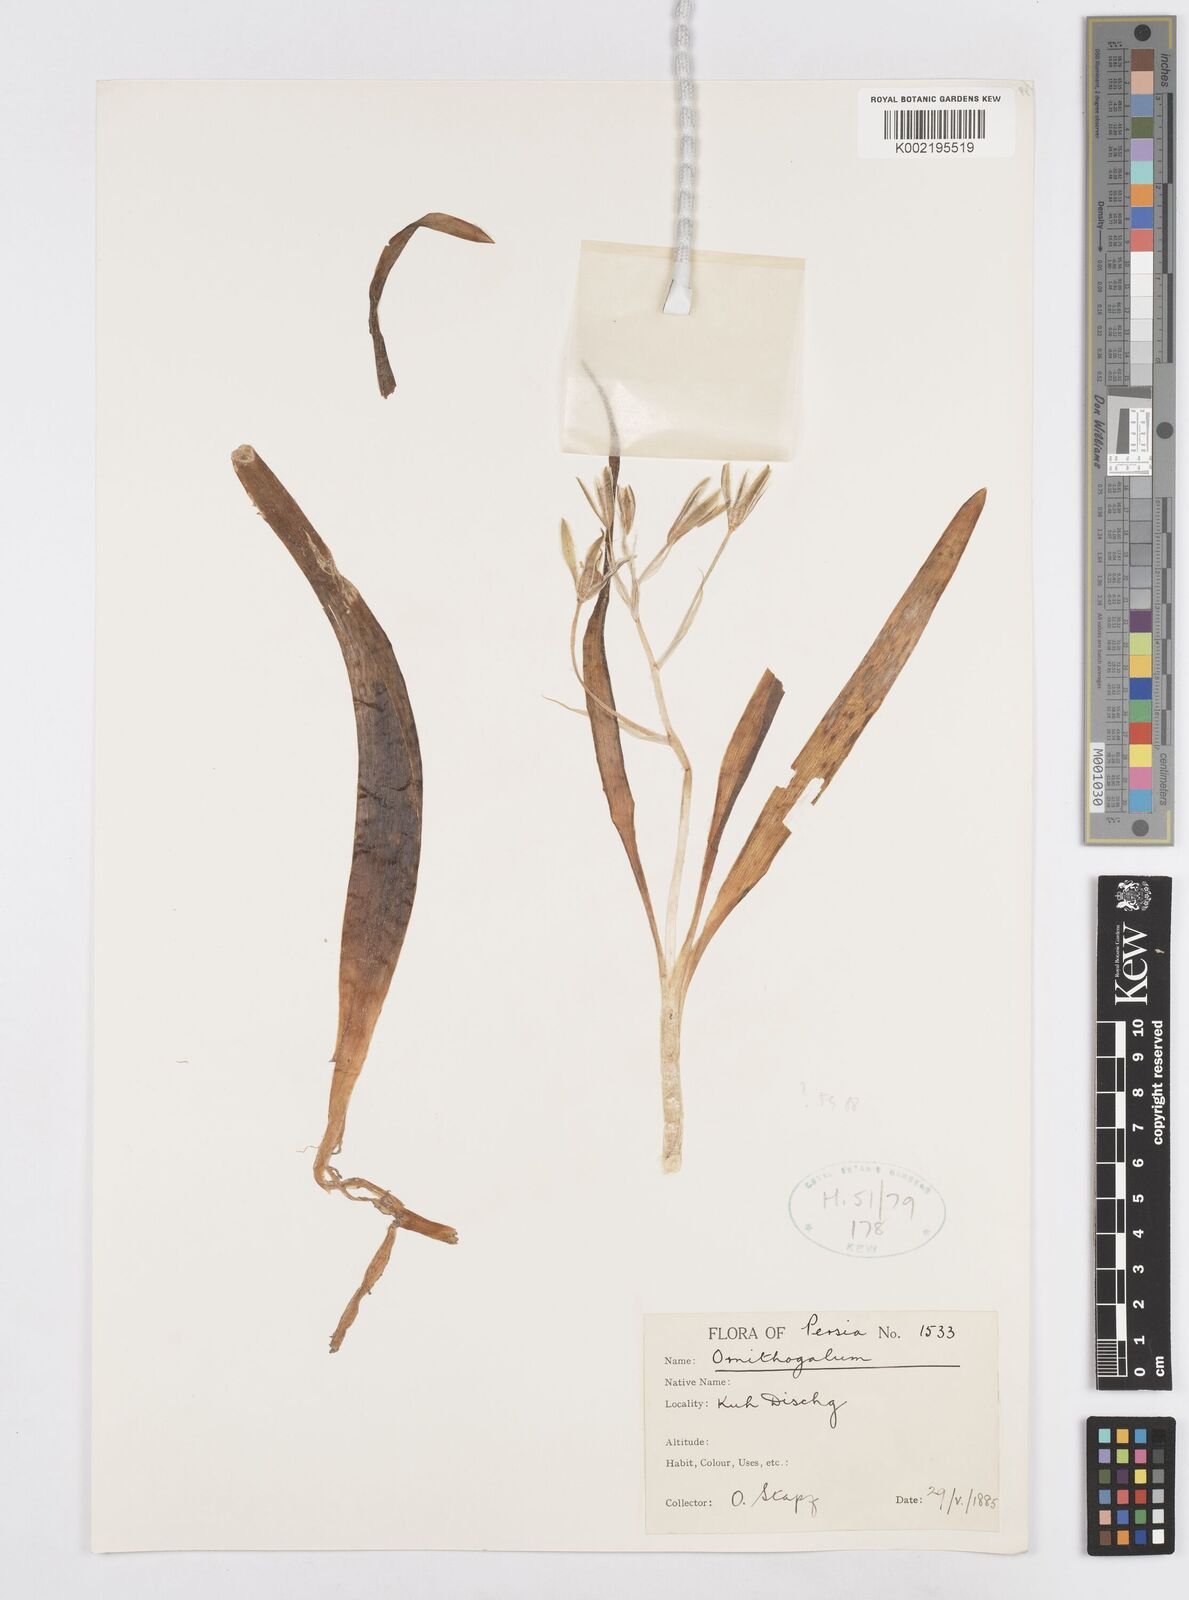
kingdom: Plantae
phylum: Tracheophyta
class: Liliopsida
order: Asparagales
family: Asparagaceae
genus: Ornithogalum
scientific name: Ornithogalum
